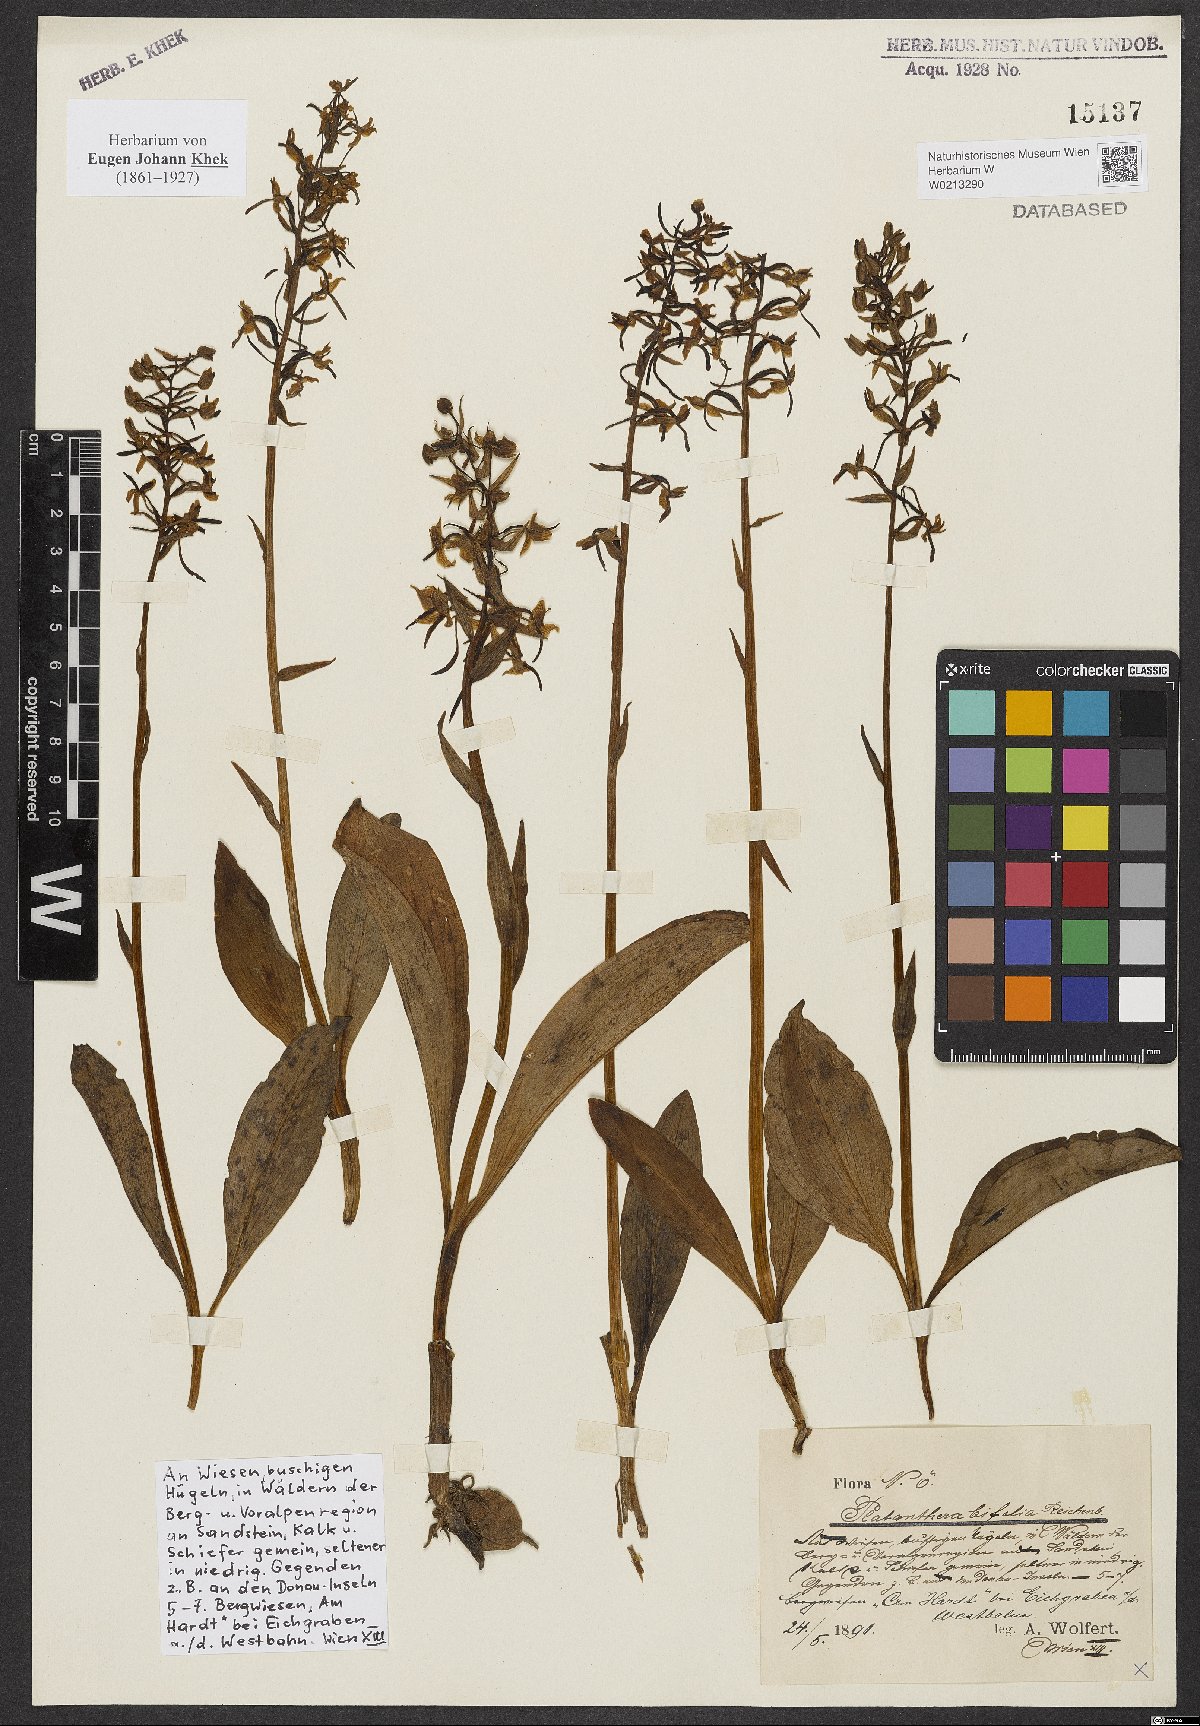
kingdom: Plantae
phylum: Tracheophyta
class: Liliopsida
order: Asparagales
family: Orchidaceae
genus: Platanthera
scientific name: Platanthera bifolia
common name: Lesser butterfly-orchid
